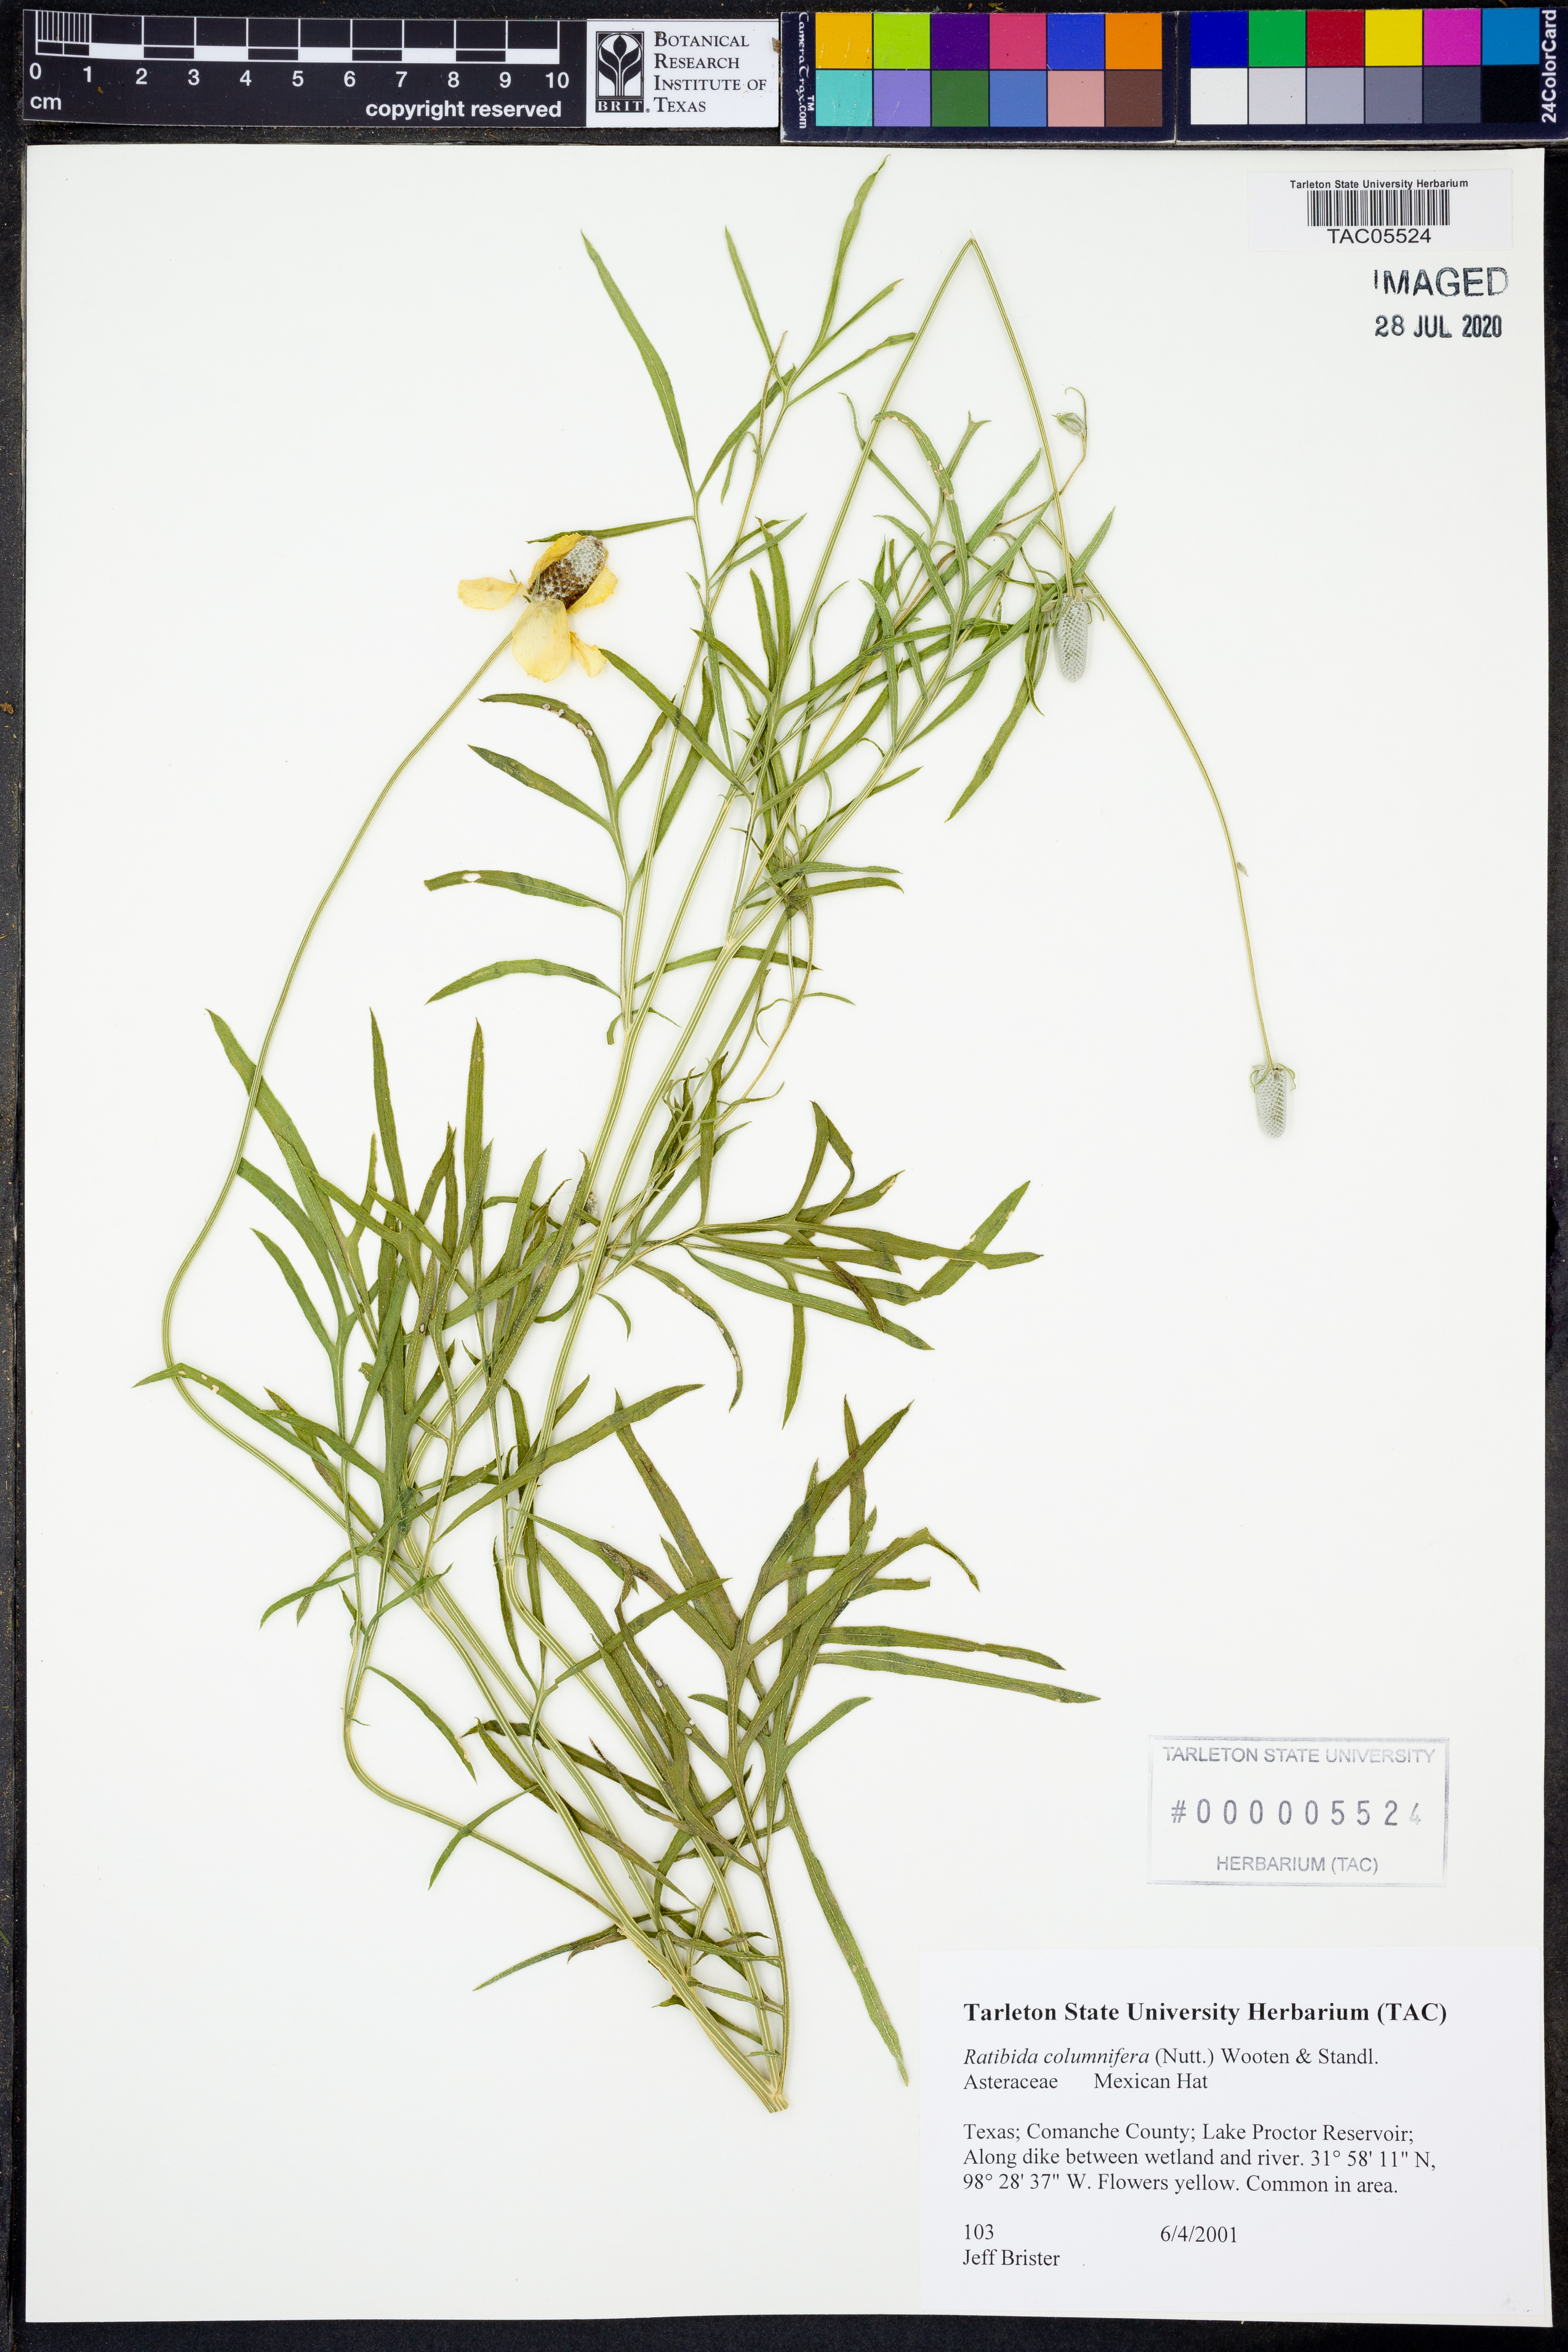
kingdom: Plantae
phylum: Tracheophyta
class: Magnoliopsida
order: Asterales
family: Asteraceae
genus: Ratibida
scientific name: Ratibida columnifera
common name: Prairie coneflower
